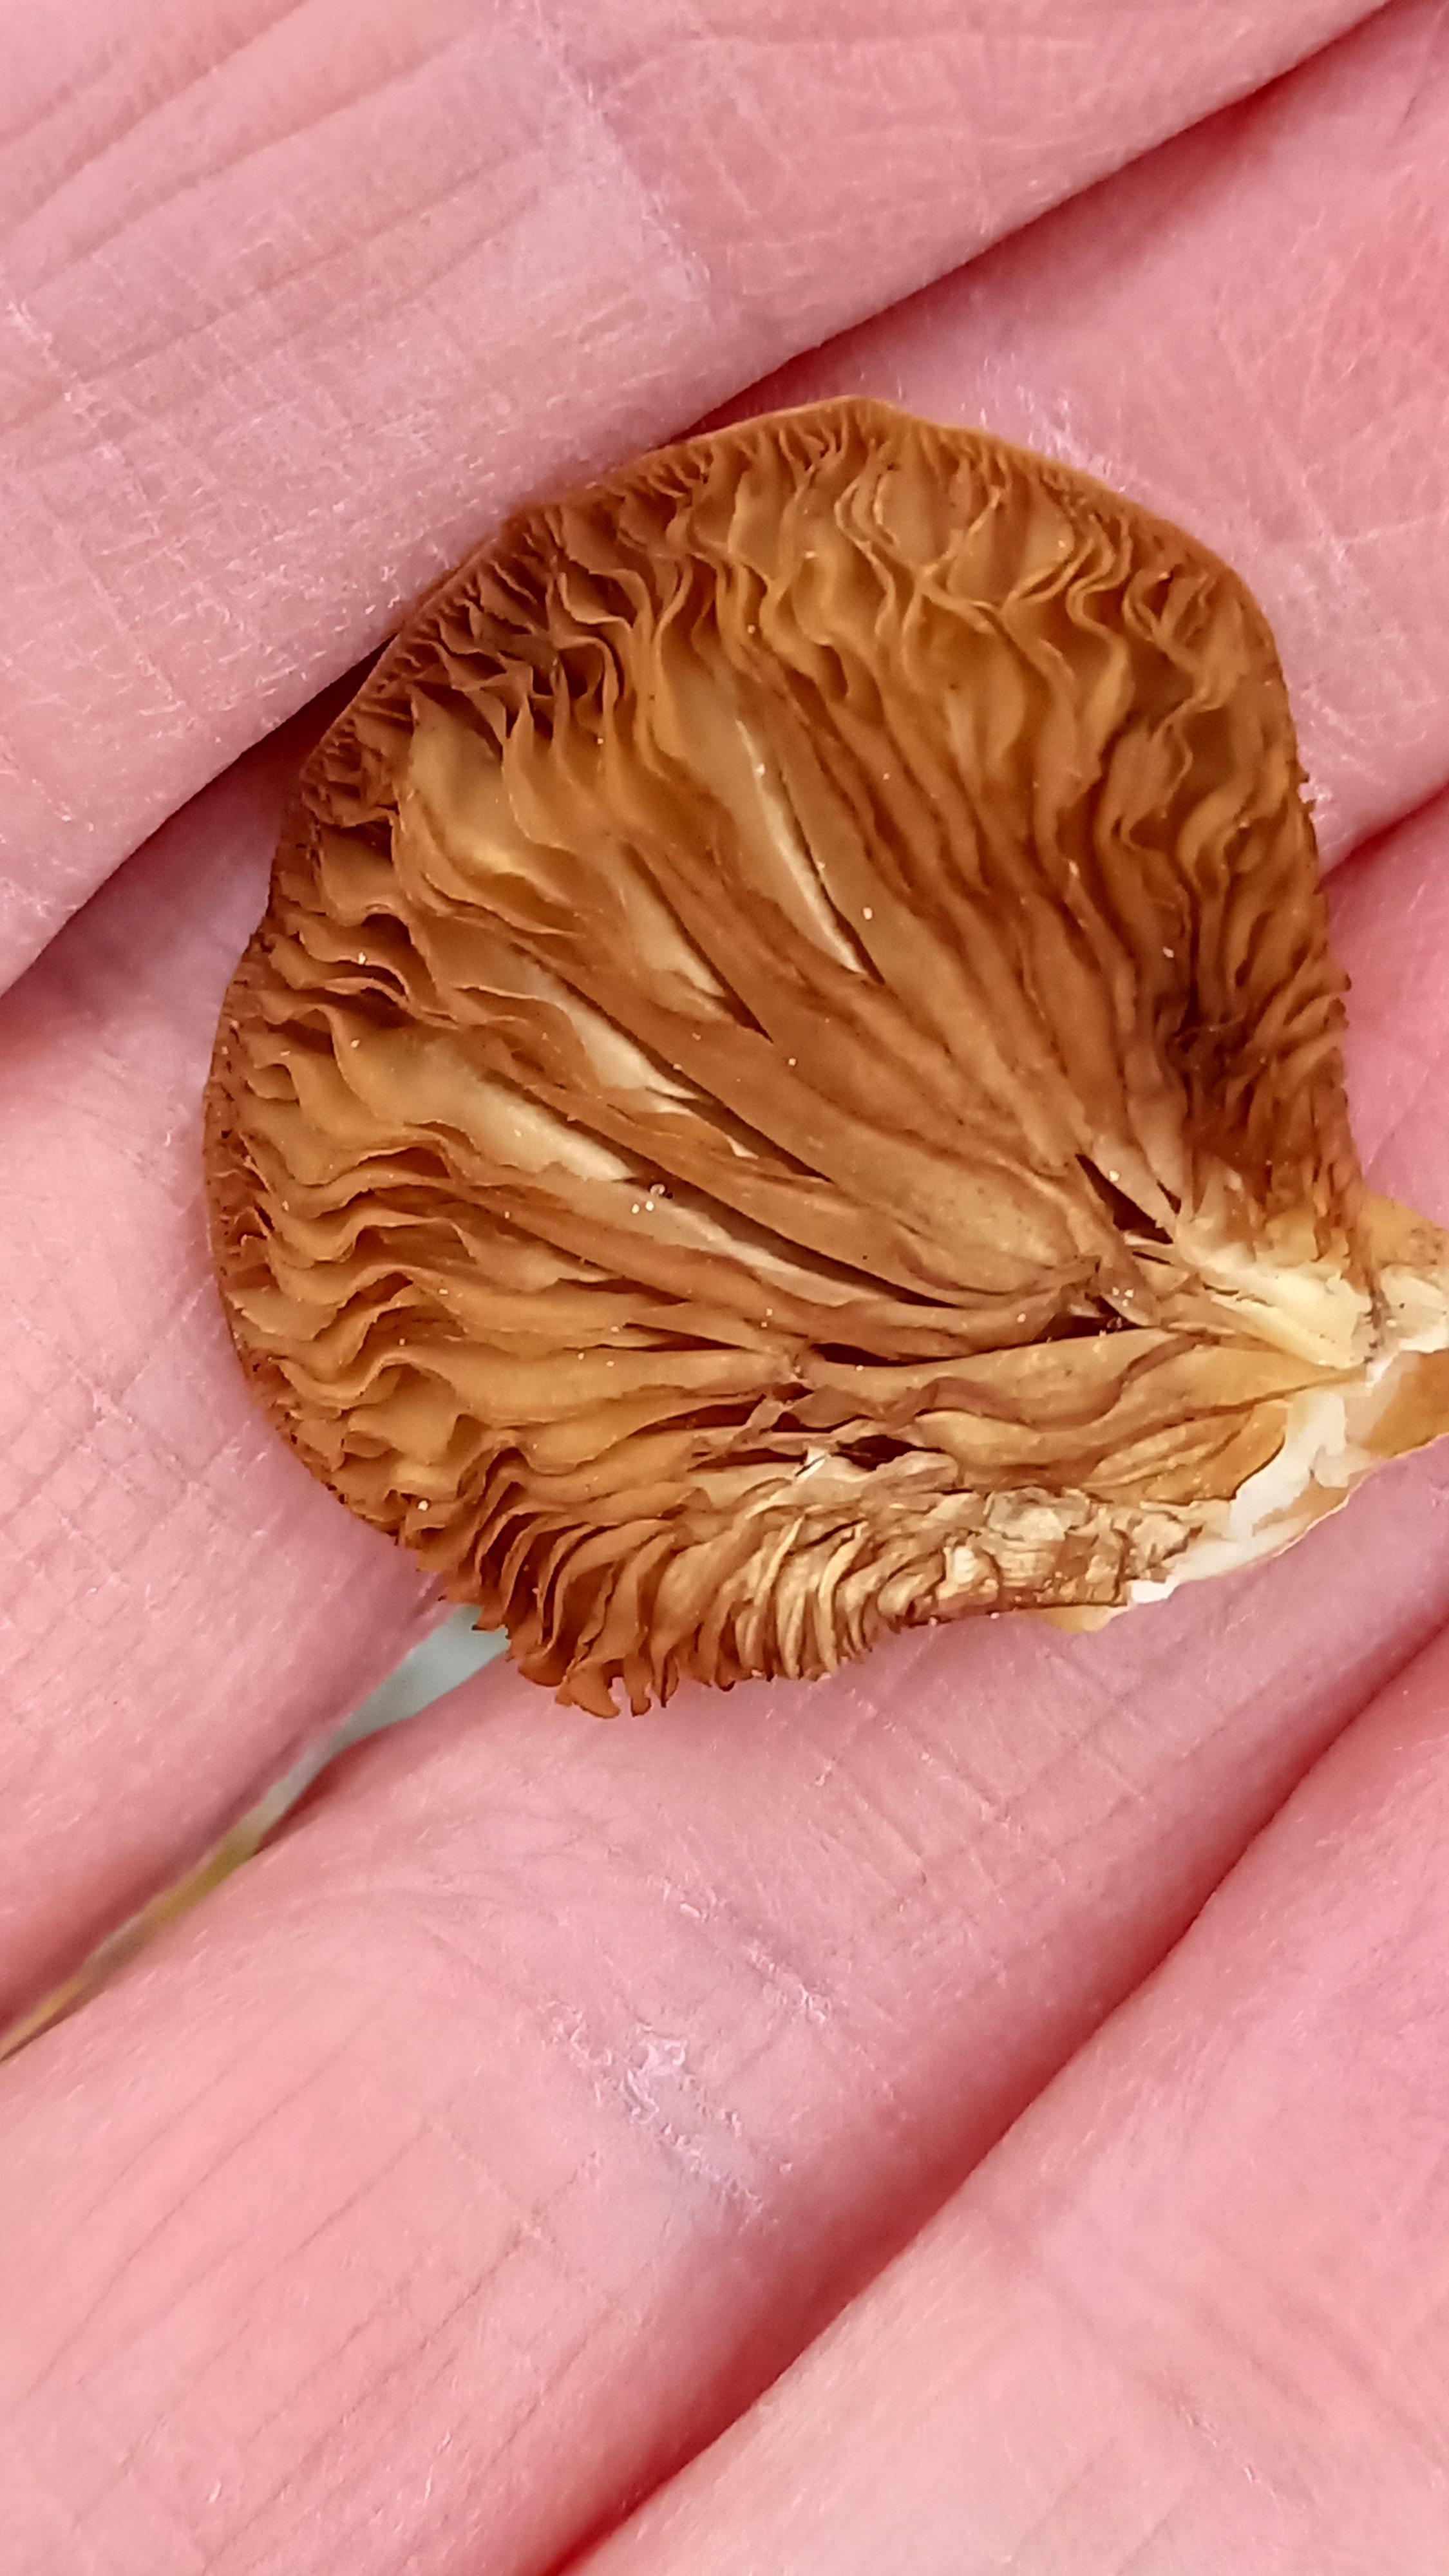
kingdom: Fungi
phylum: Basidiomycota
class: Agaricomycetes
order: Agaricales
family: Crepidotaceae
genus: Crepidotus
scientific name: Crepidotus mollis
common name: blød muslingesvamp
